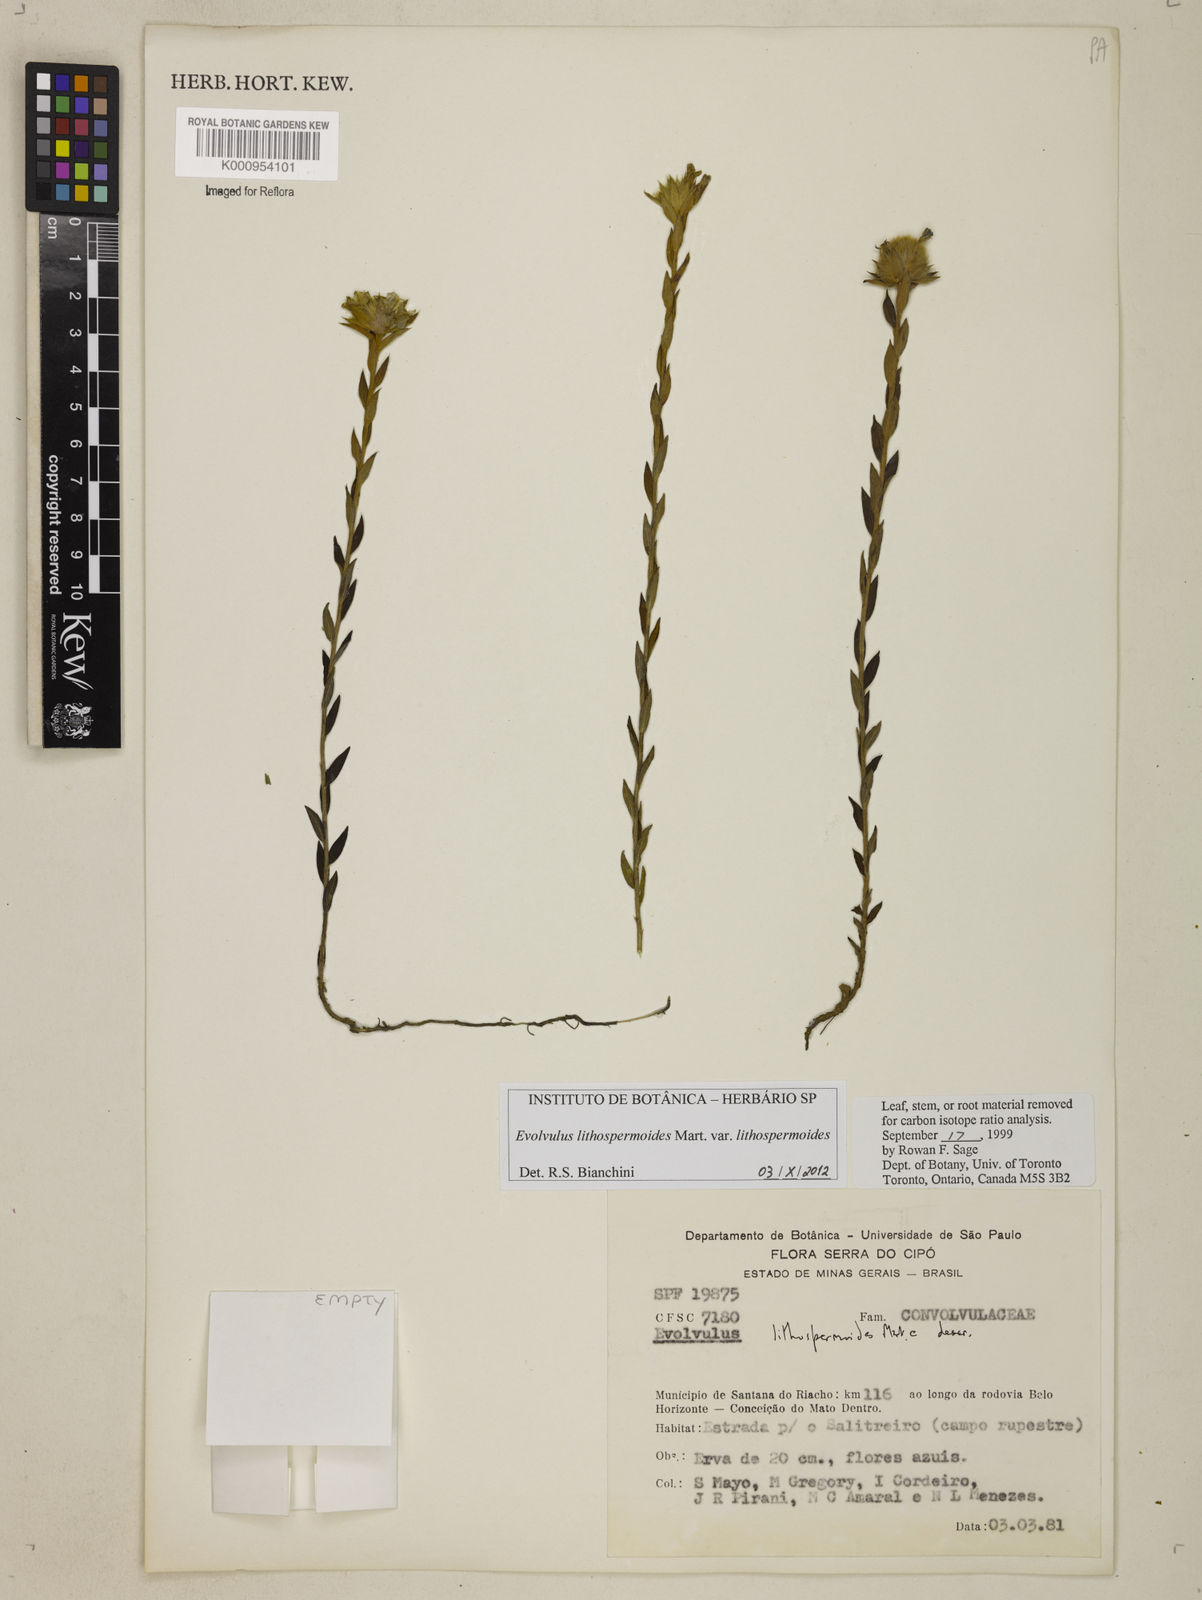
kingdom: Plantae
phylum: Tracheophyta
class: Magnoliopsida
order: Solanales
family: Convolvulaceae
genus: Evolvulus
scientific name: Evolvulus lithospermoides
